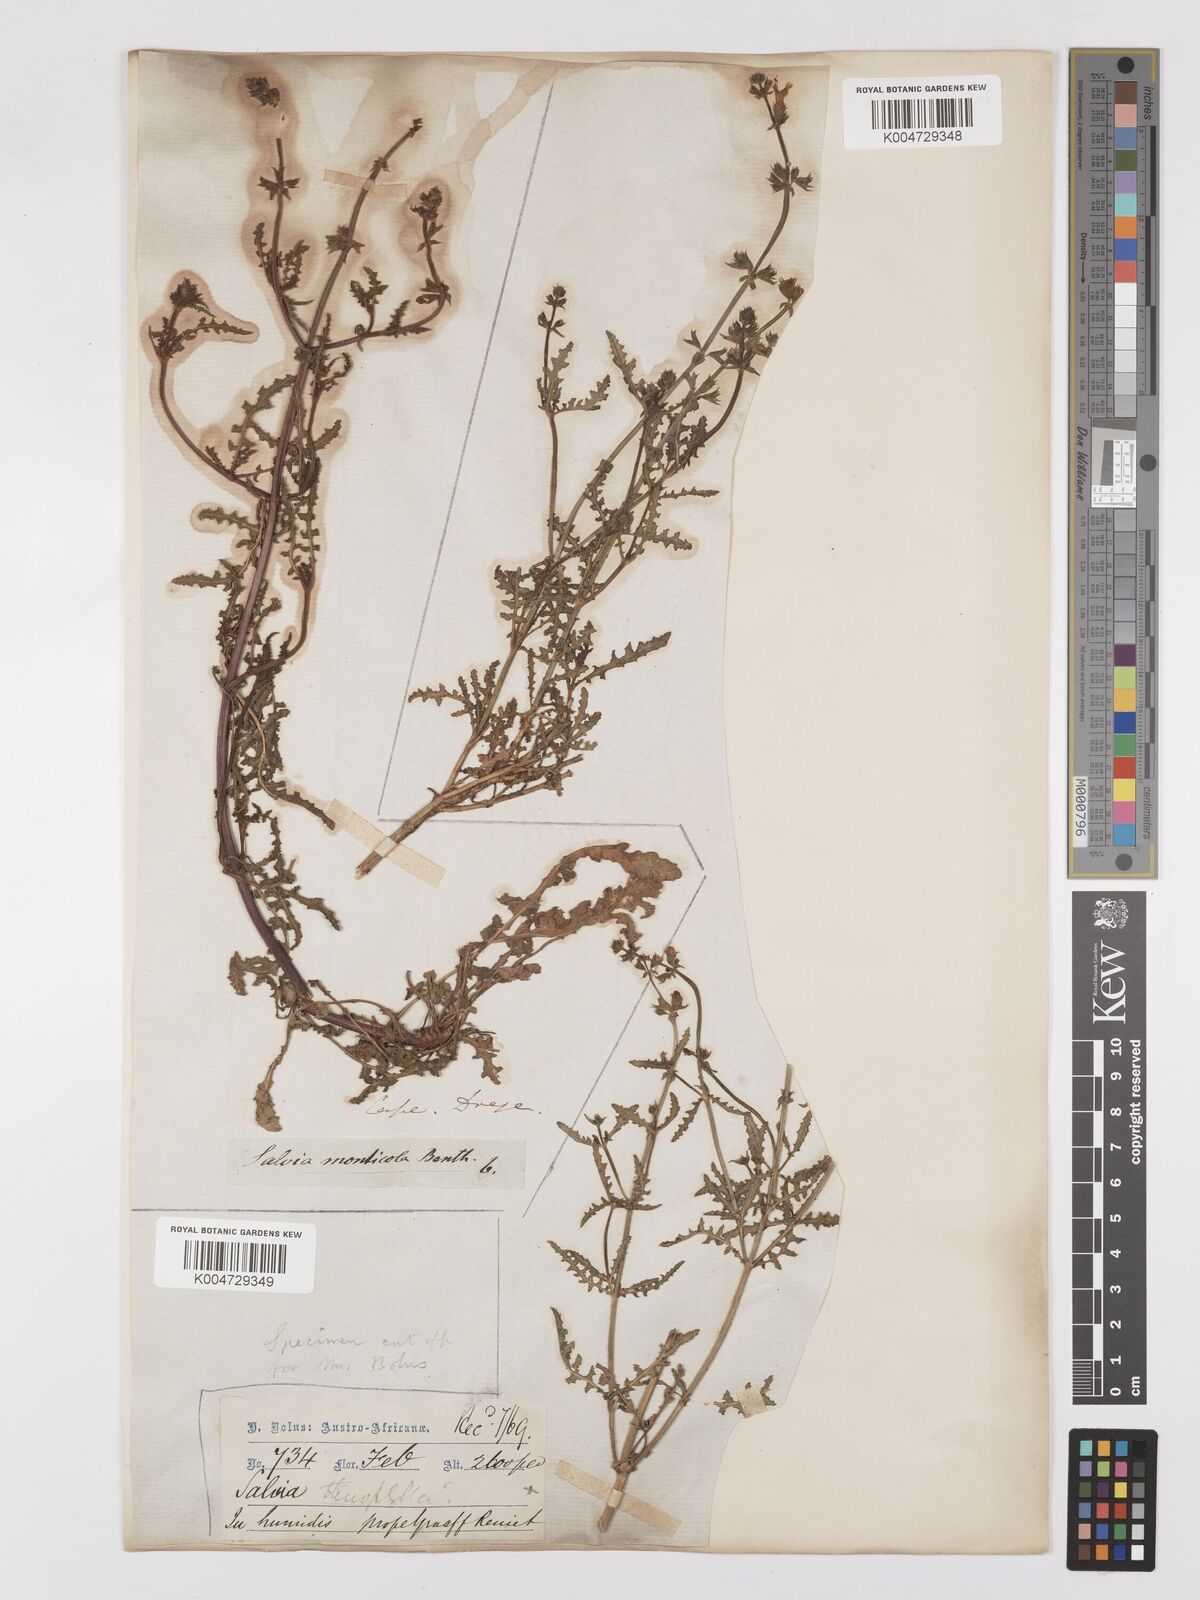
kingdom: Plantae
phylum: Tracheophyta
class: Magnoliopsida
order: Lamiales
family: Lamiaceae
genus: Salvia
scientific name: Salvia stenophylla
